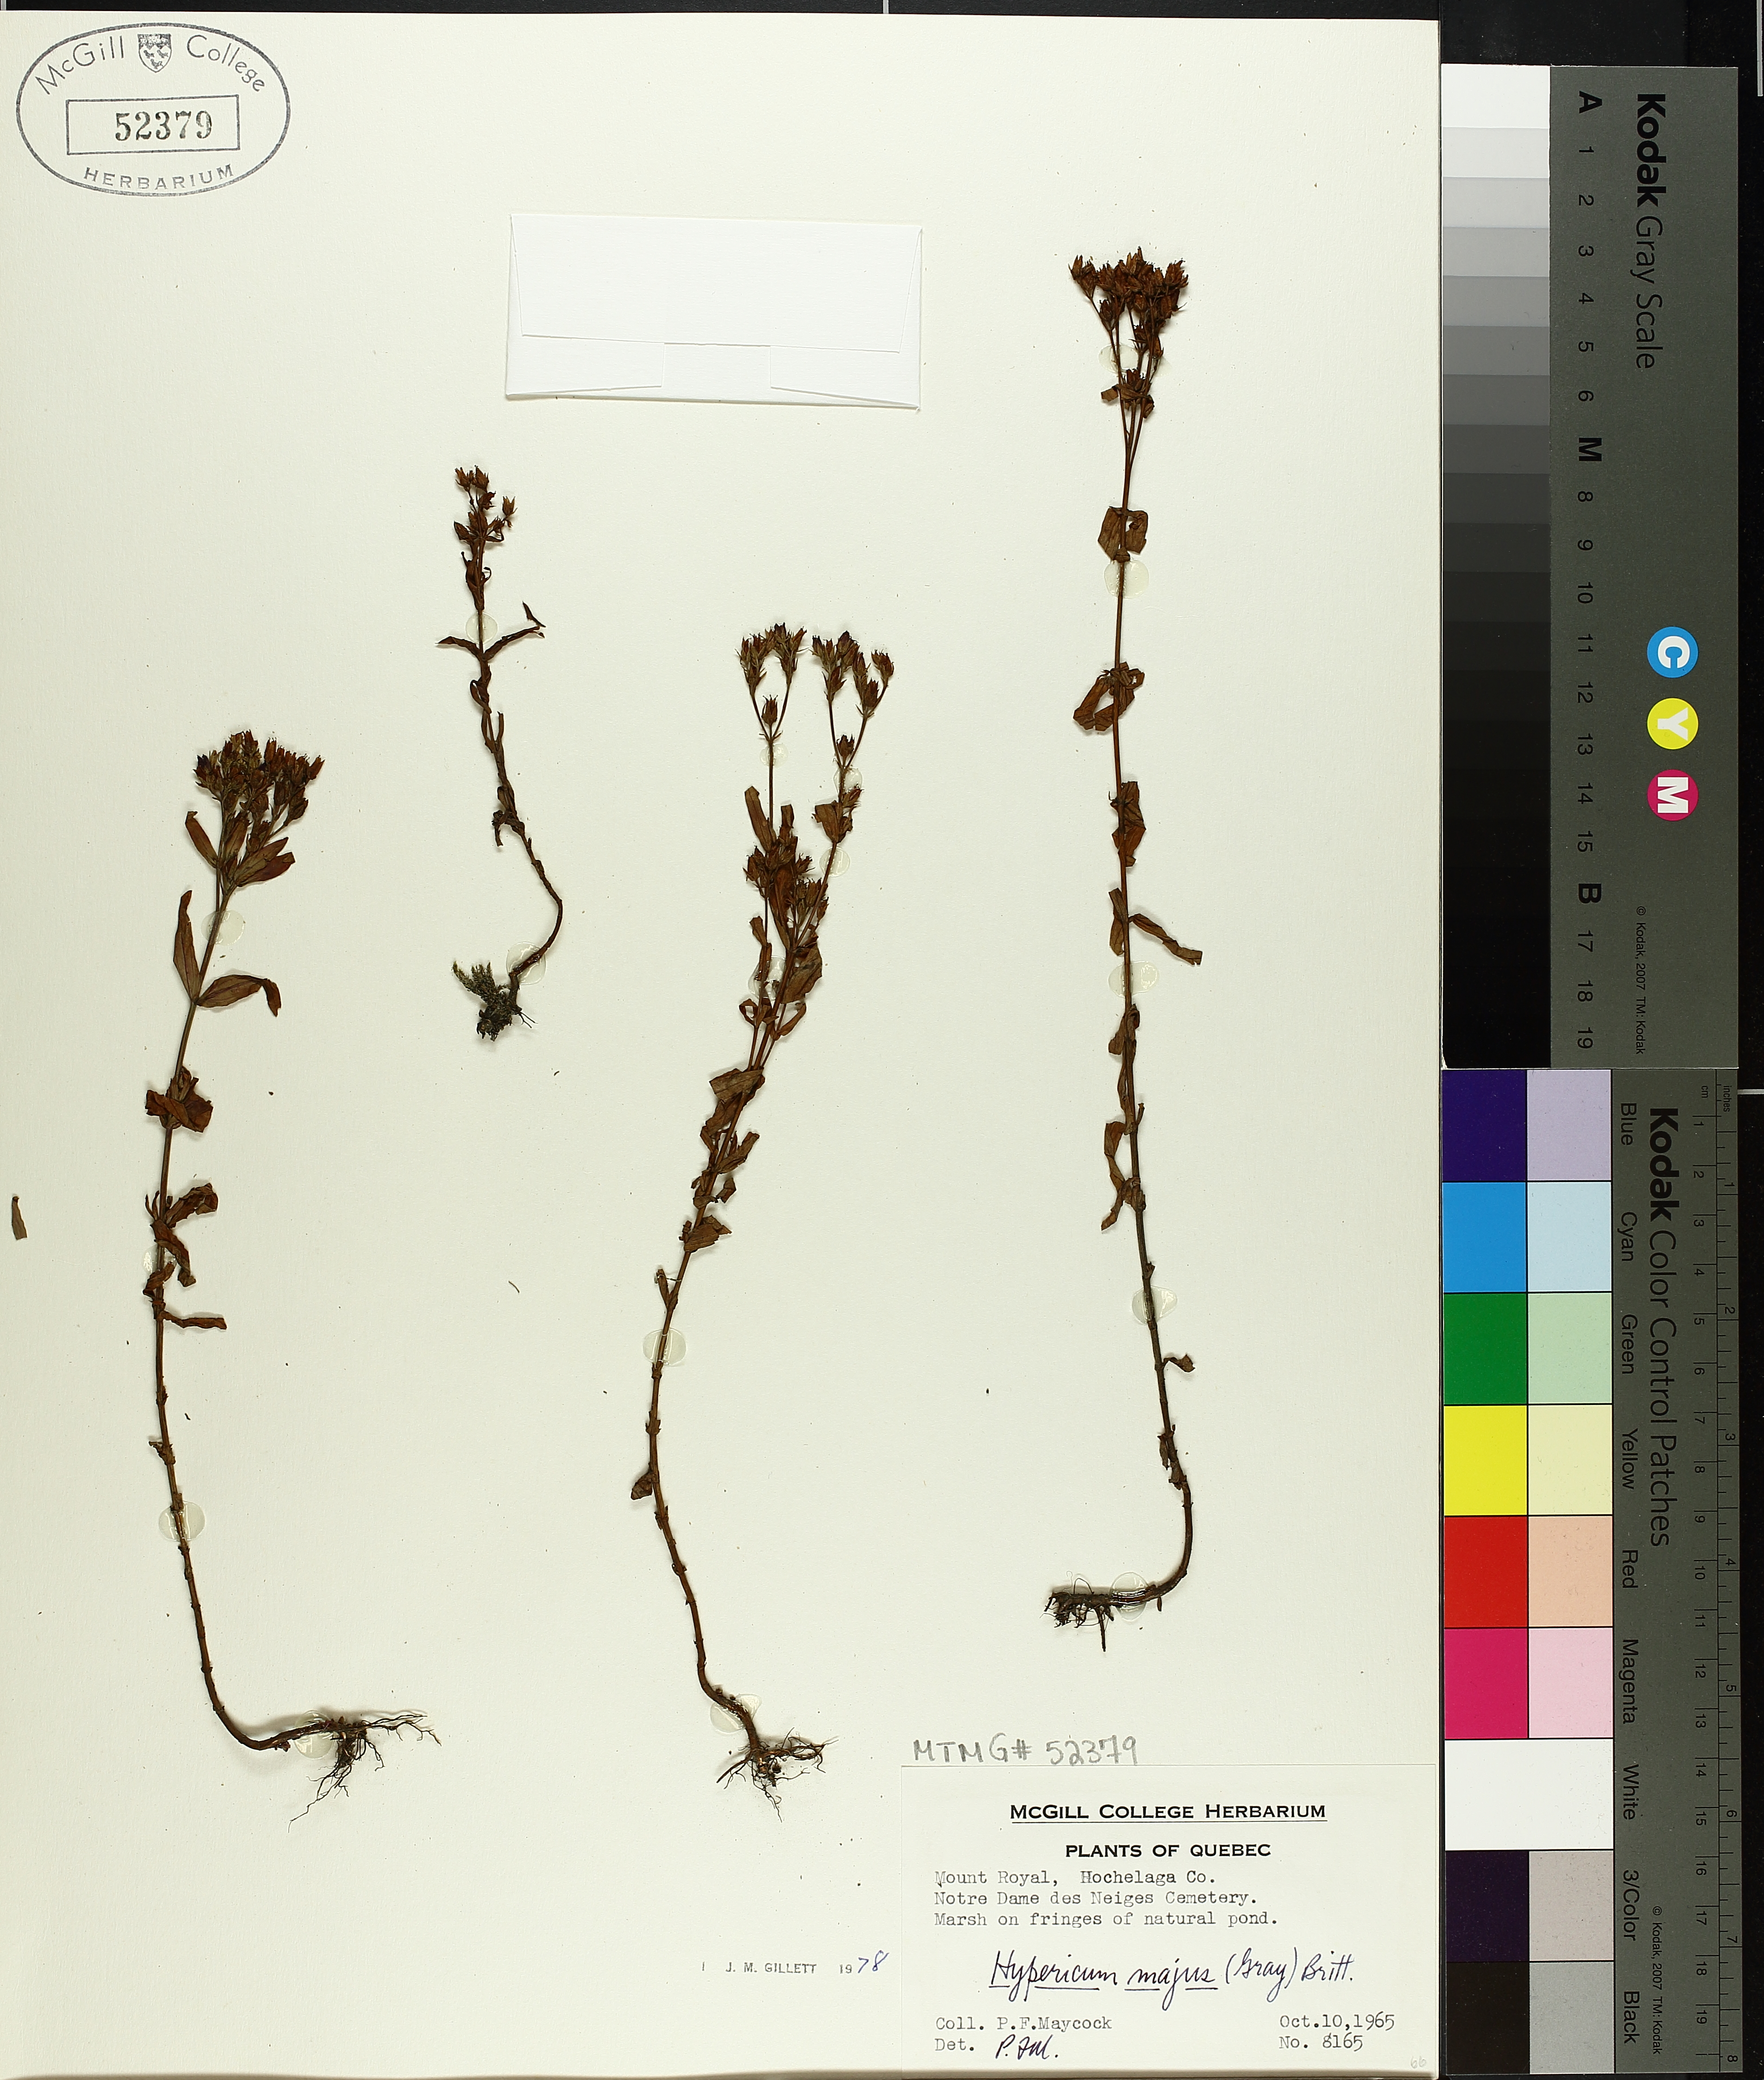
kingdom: Plantae
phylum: Tracheophyta
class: Magnoliopsida
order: Malpighiales
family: Hypericaceae
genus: Hypericum
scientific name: Hypericum majus
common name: Greater canadian st. john's-wort
